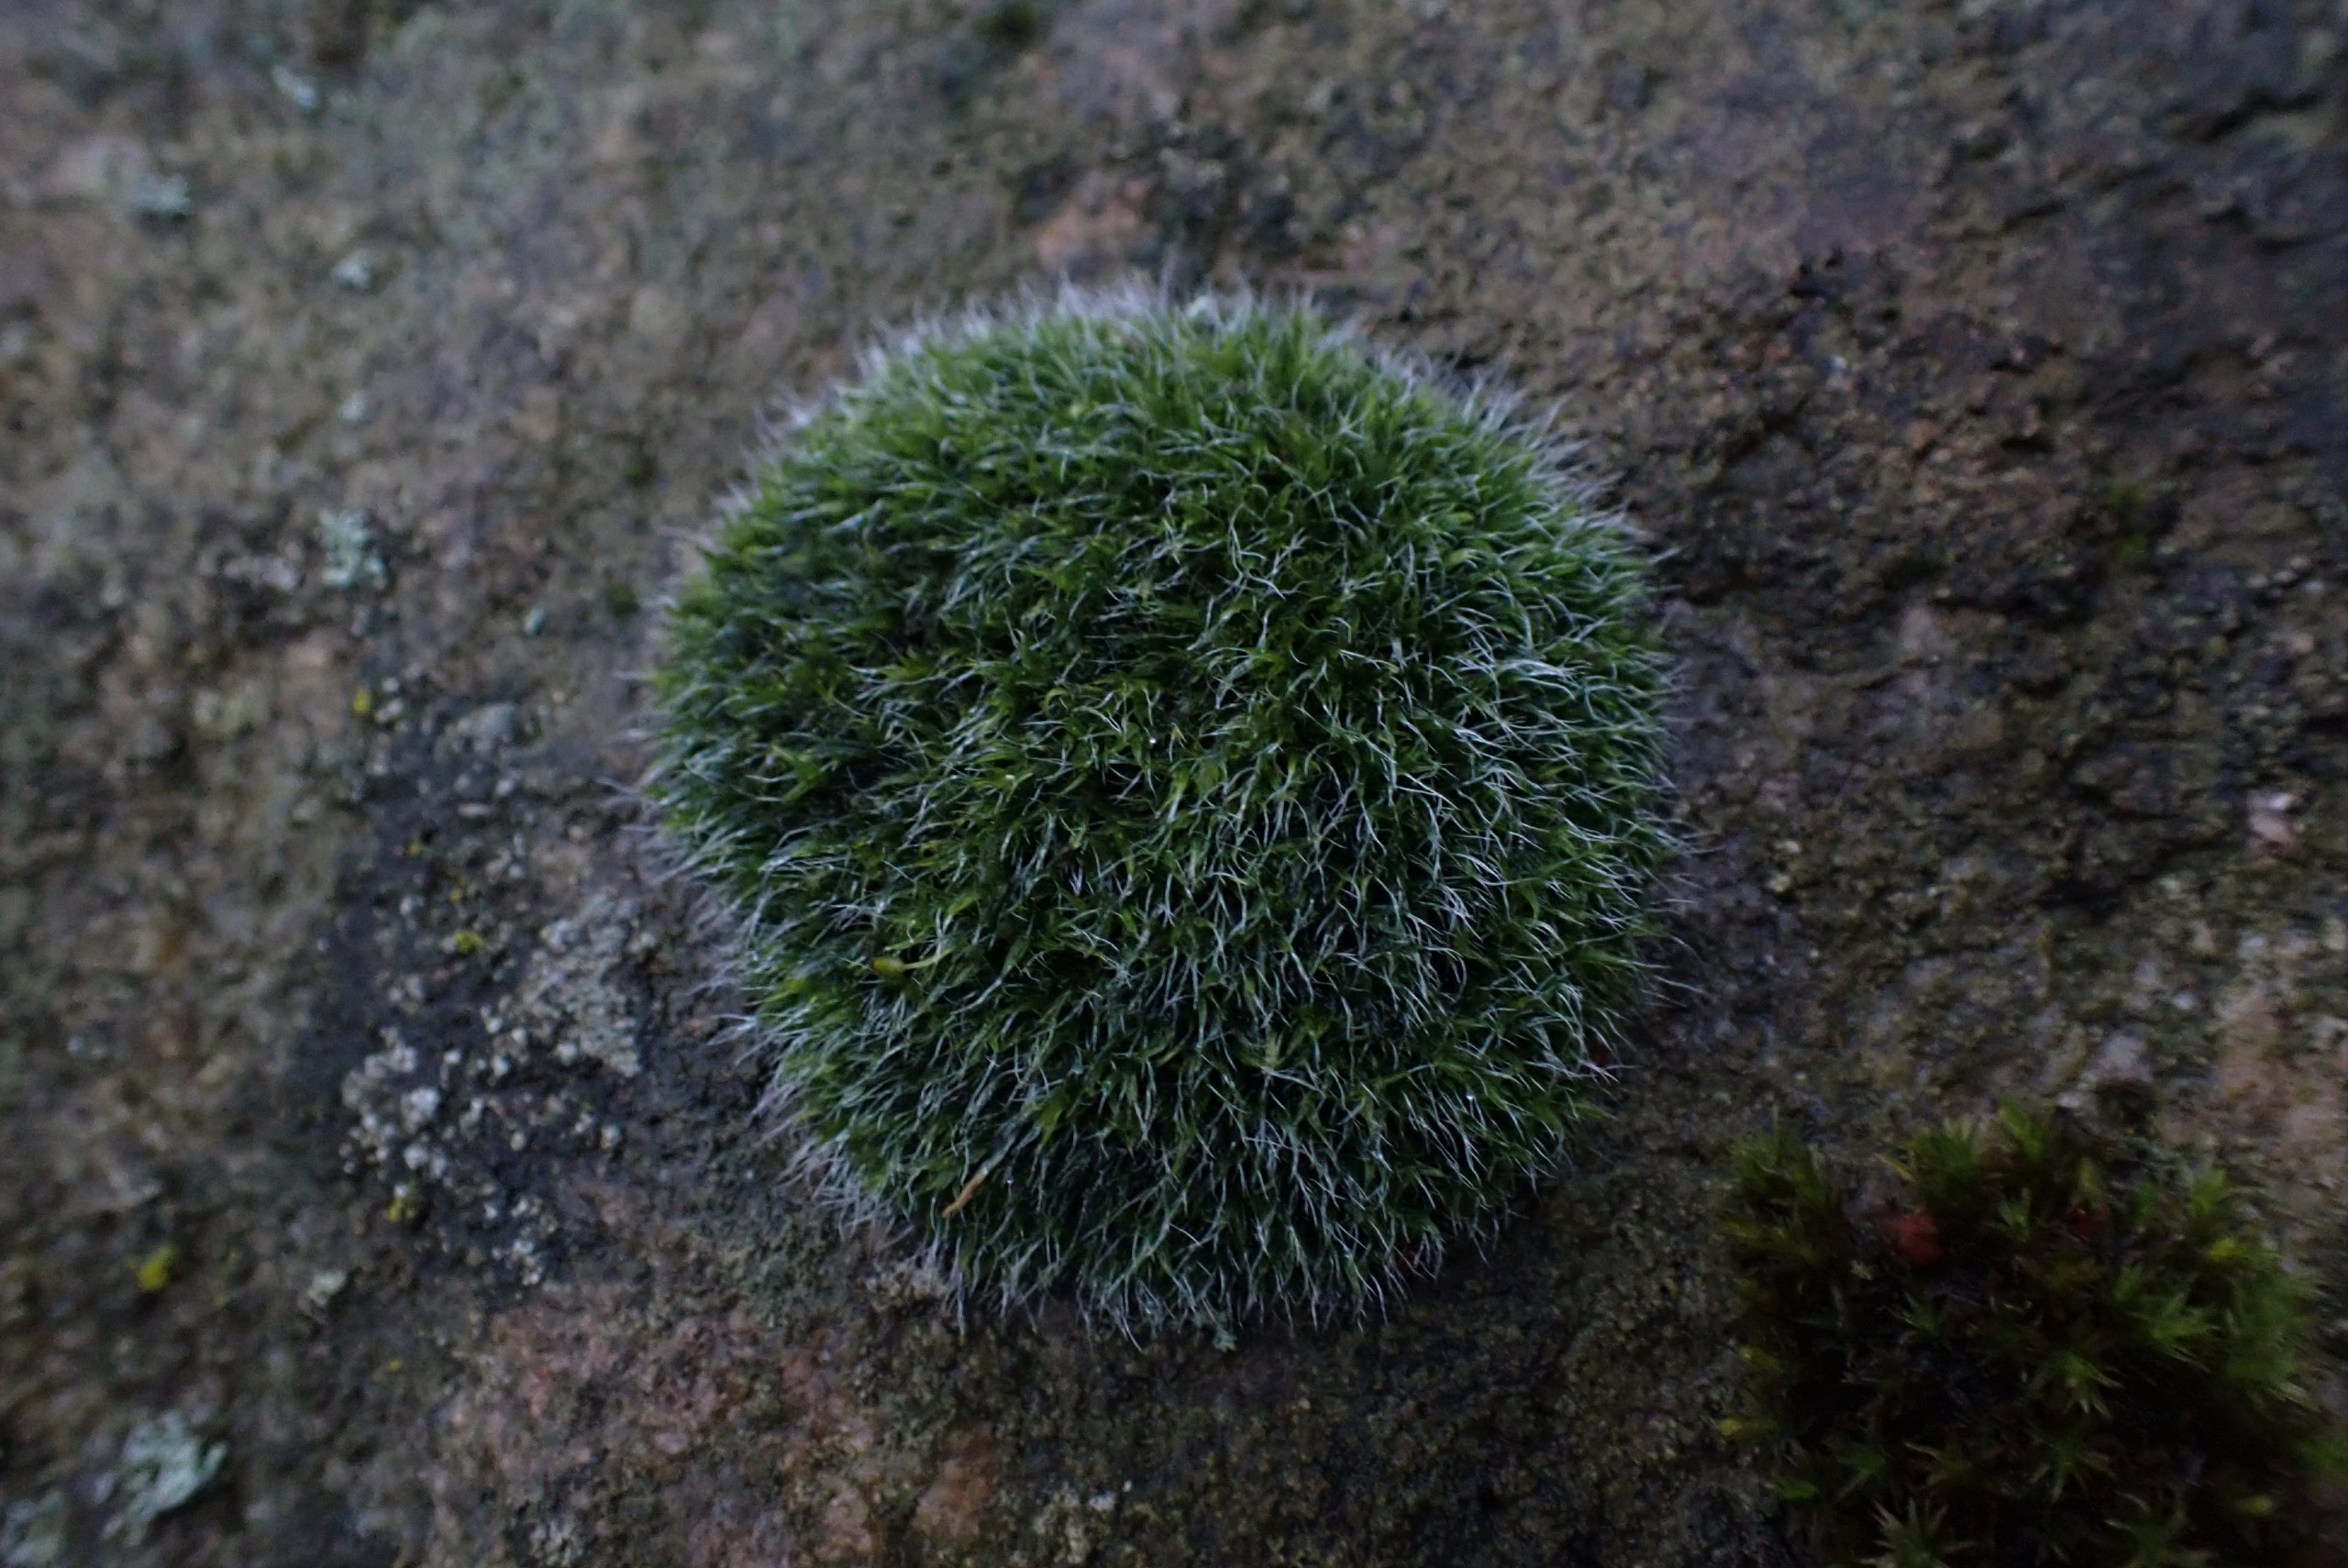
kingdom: Plantae
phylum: Bryophyta
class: Bryopsida
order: Grimmiales
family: Grimmiaceae
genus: Grimmia
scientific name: Grimmia pulvinata
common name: Pude-gråmos
